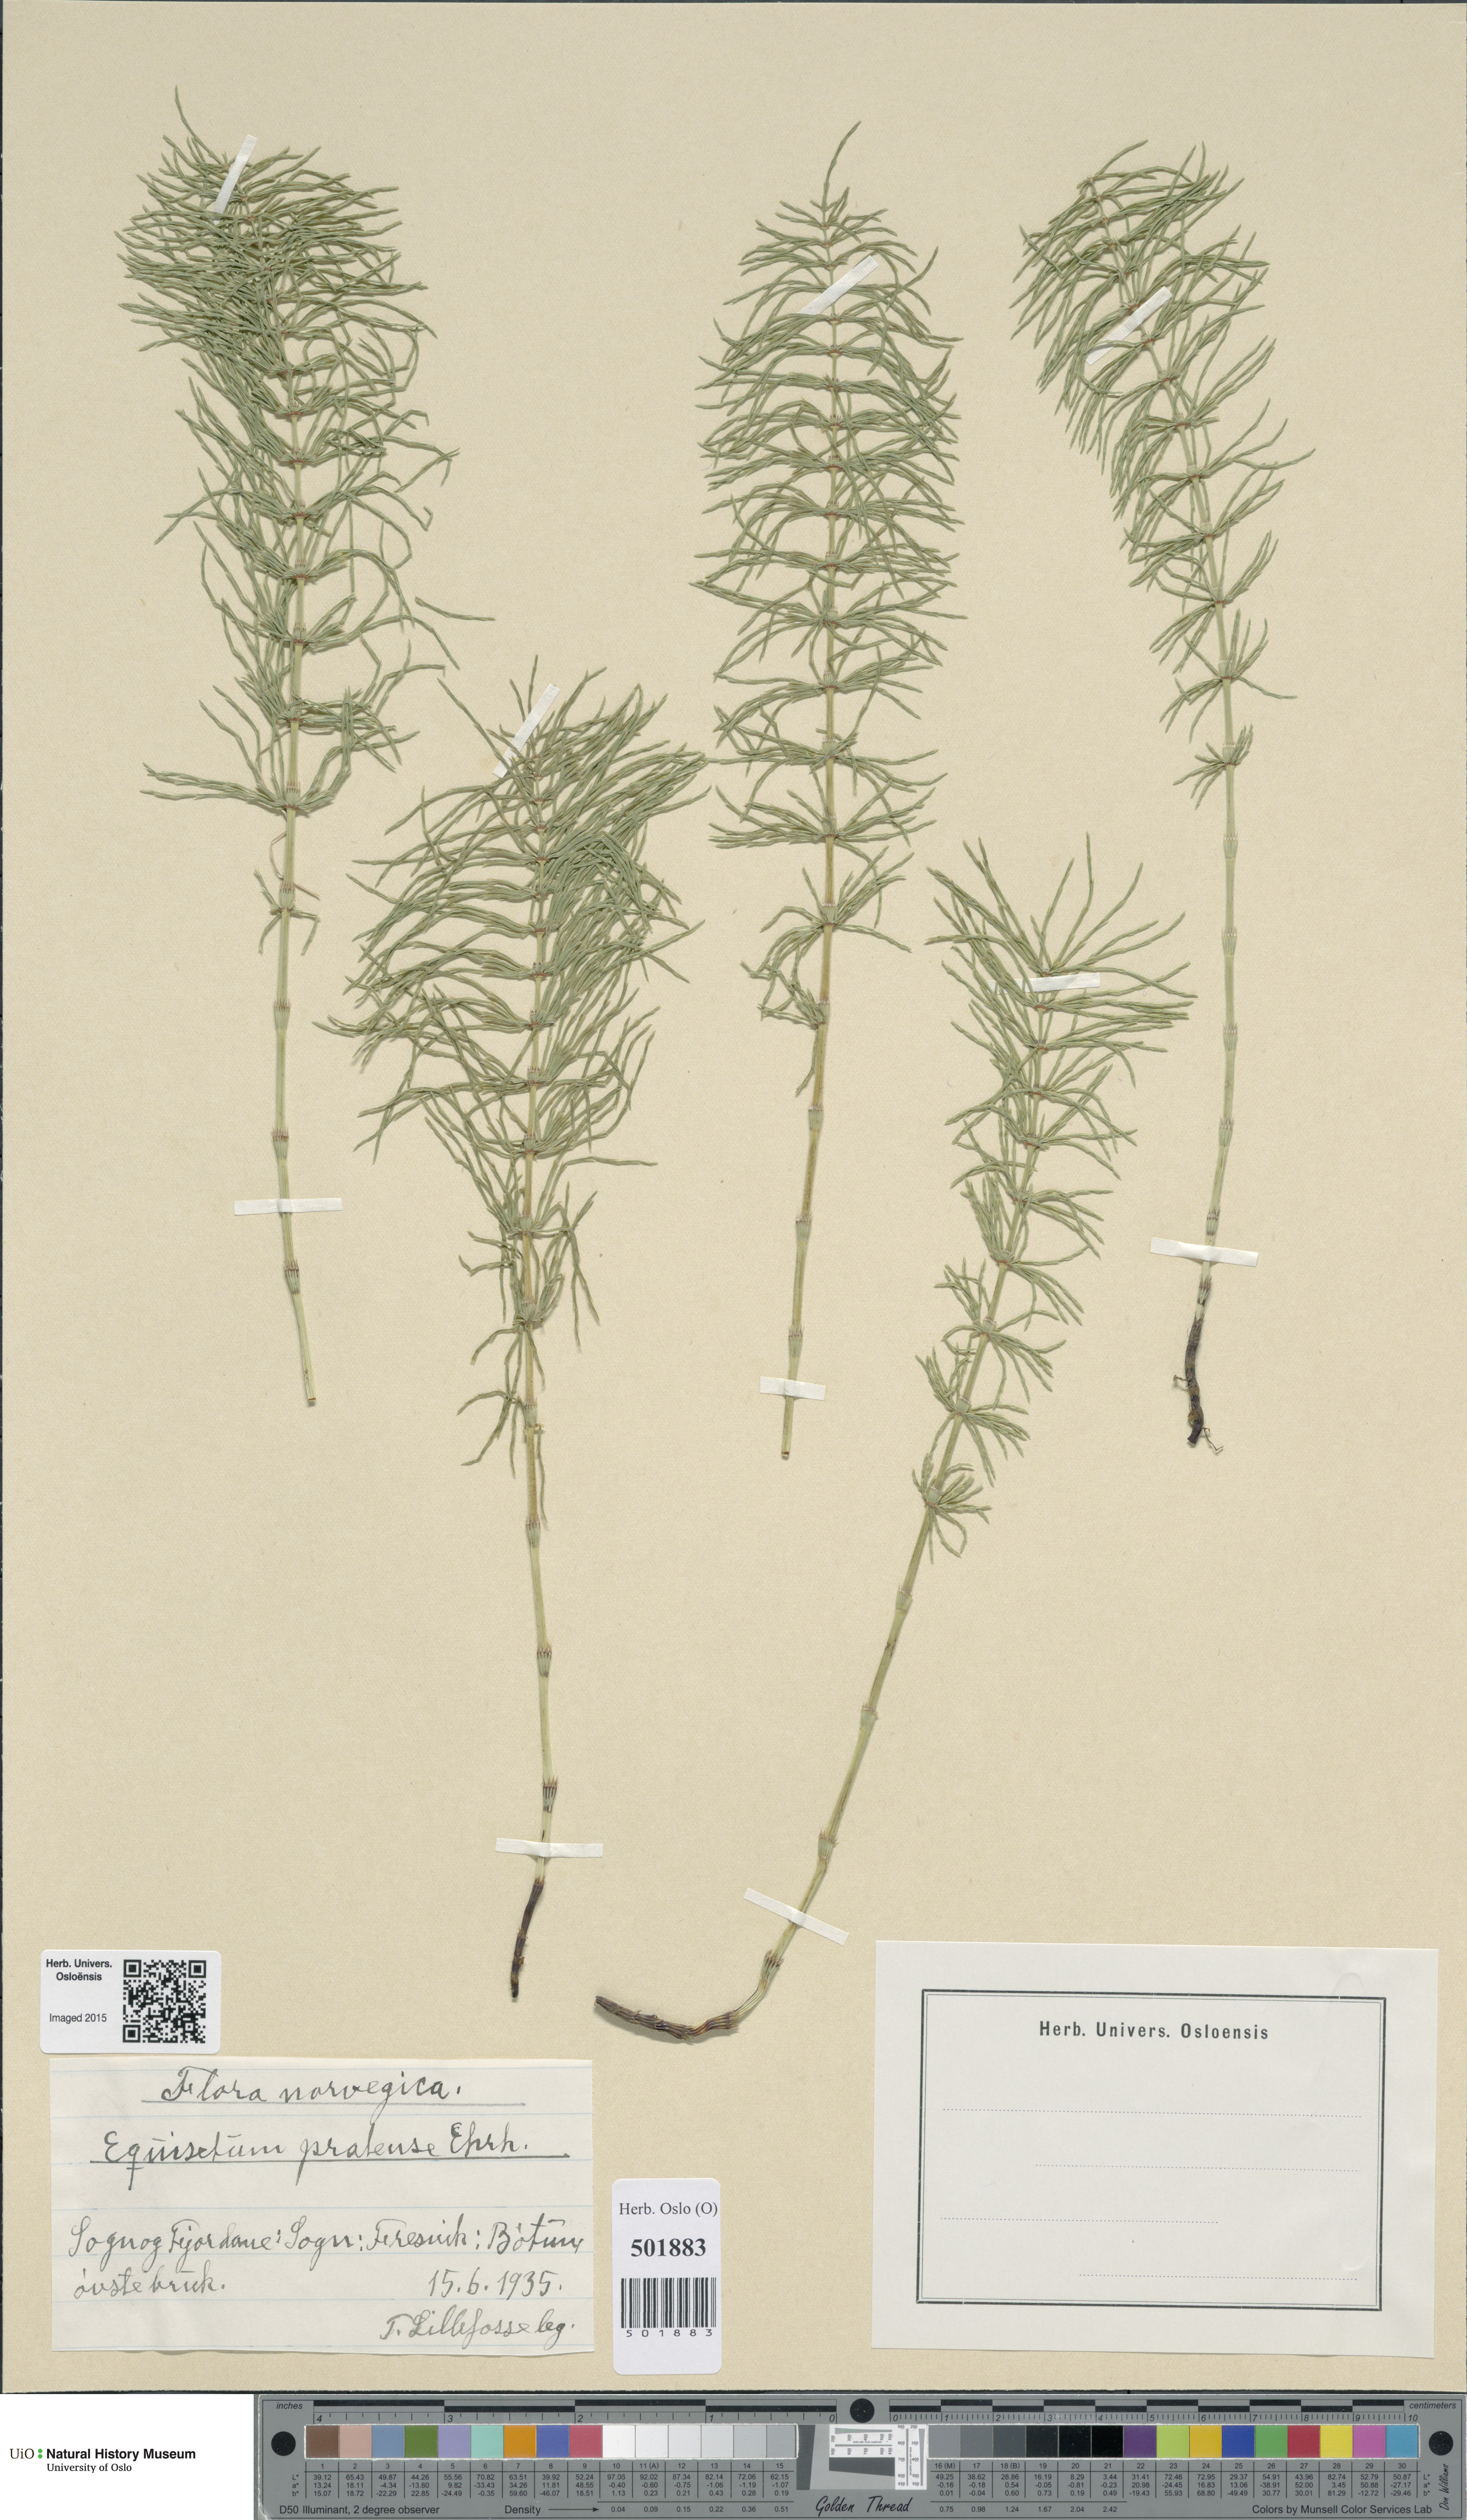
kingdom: Plantae
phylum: Tracheophyta
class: Polypodiopsida
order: Equisetales
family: Equisetaceae
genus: Equisetum
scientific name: Equisetum pratense
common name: Meadow horsetail
